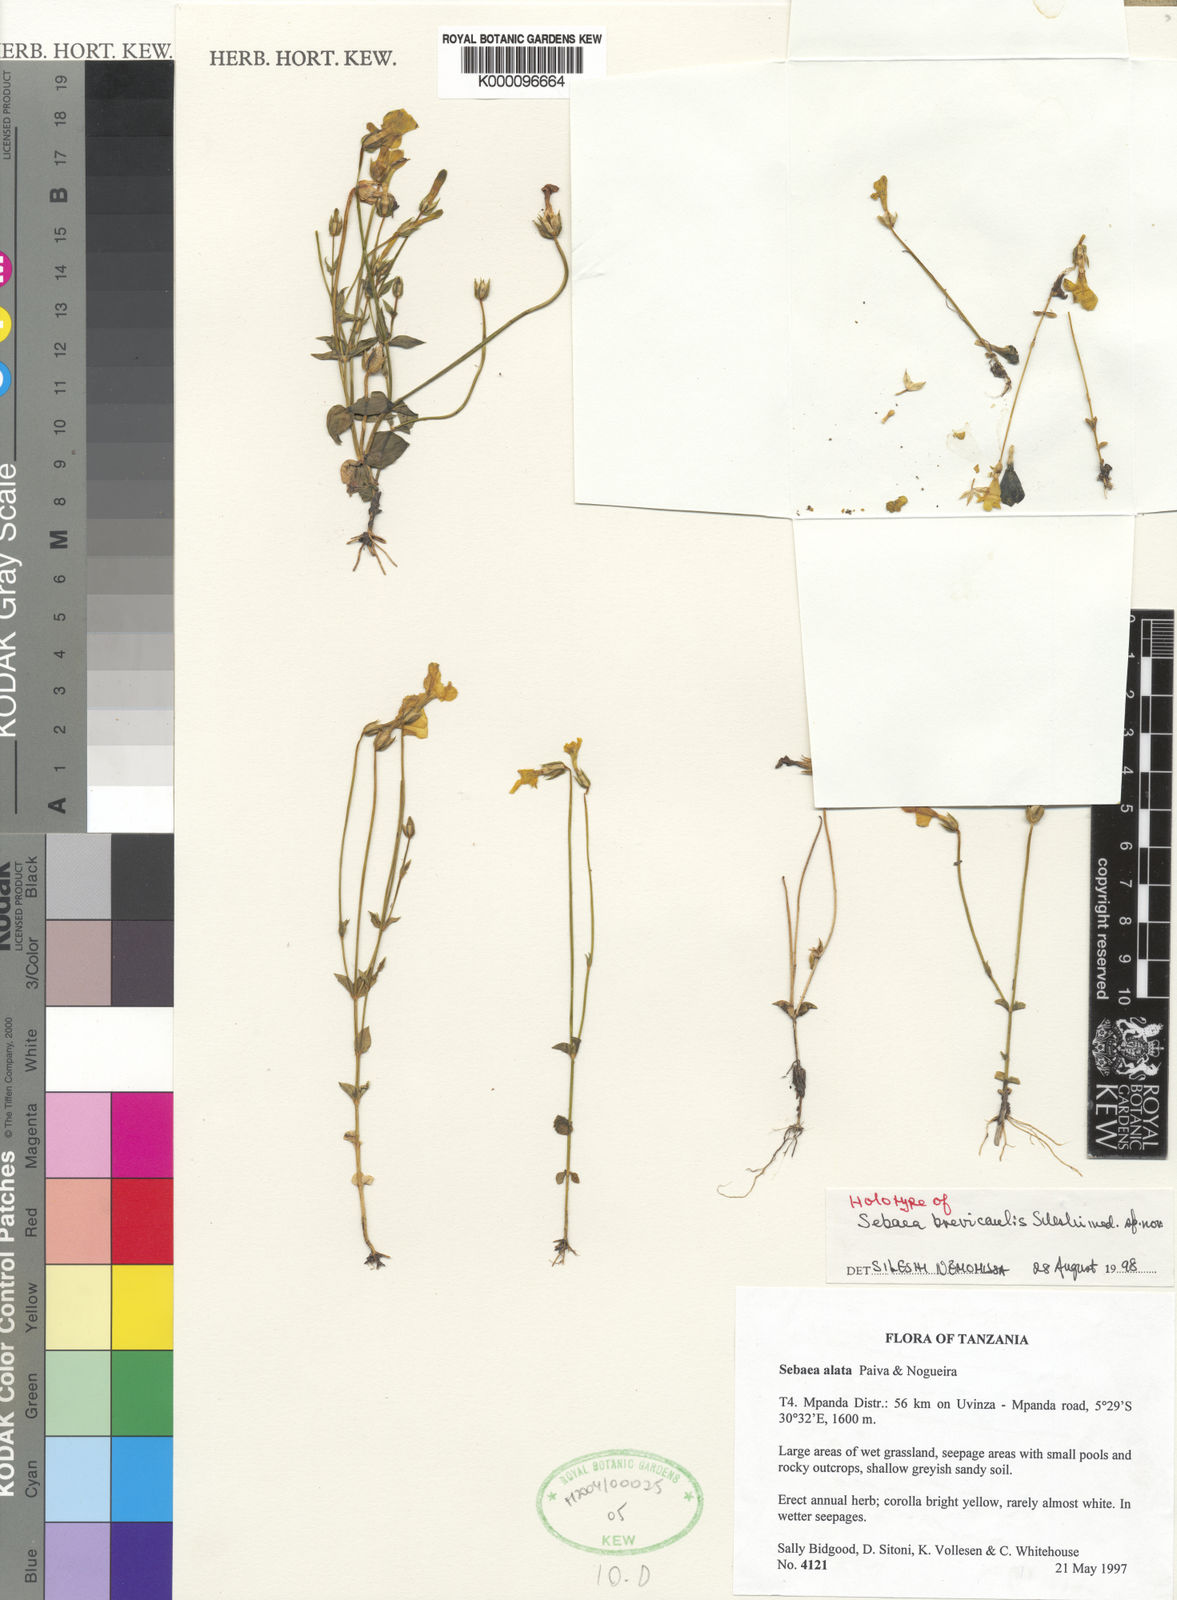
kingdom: Plantae
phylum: Tracheophyta
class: Magnoliopsida
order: Gentianales
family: Gentianaceae
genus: Exochaenium
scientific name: Exochaenium macropterum
